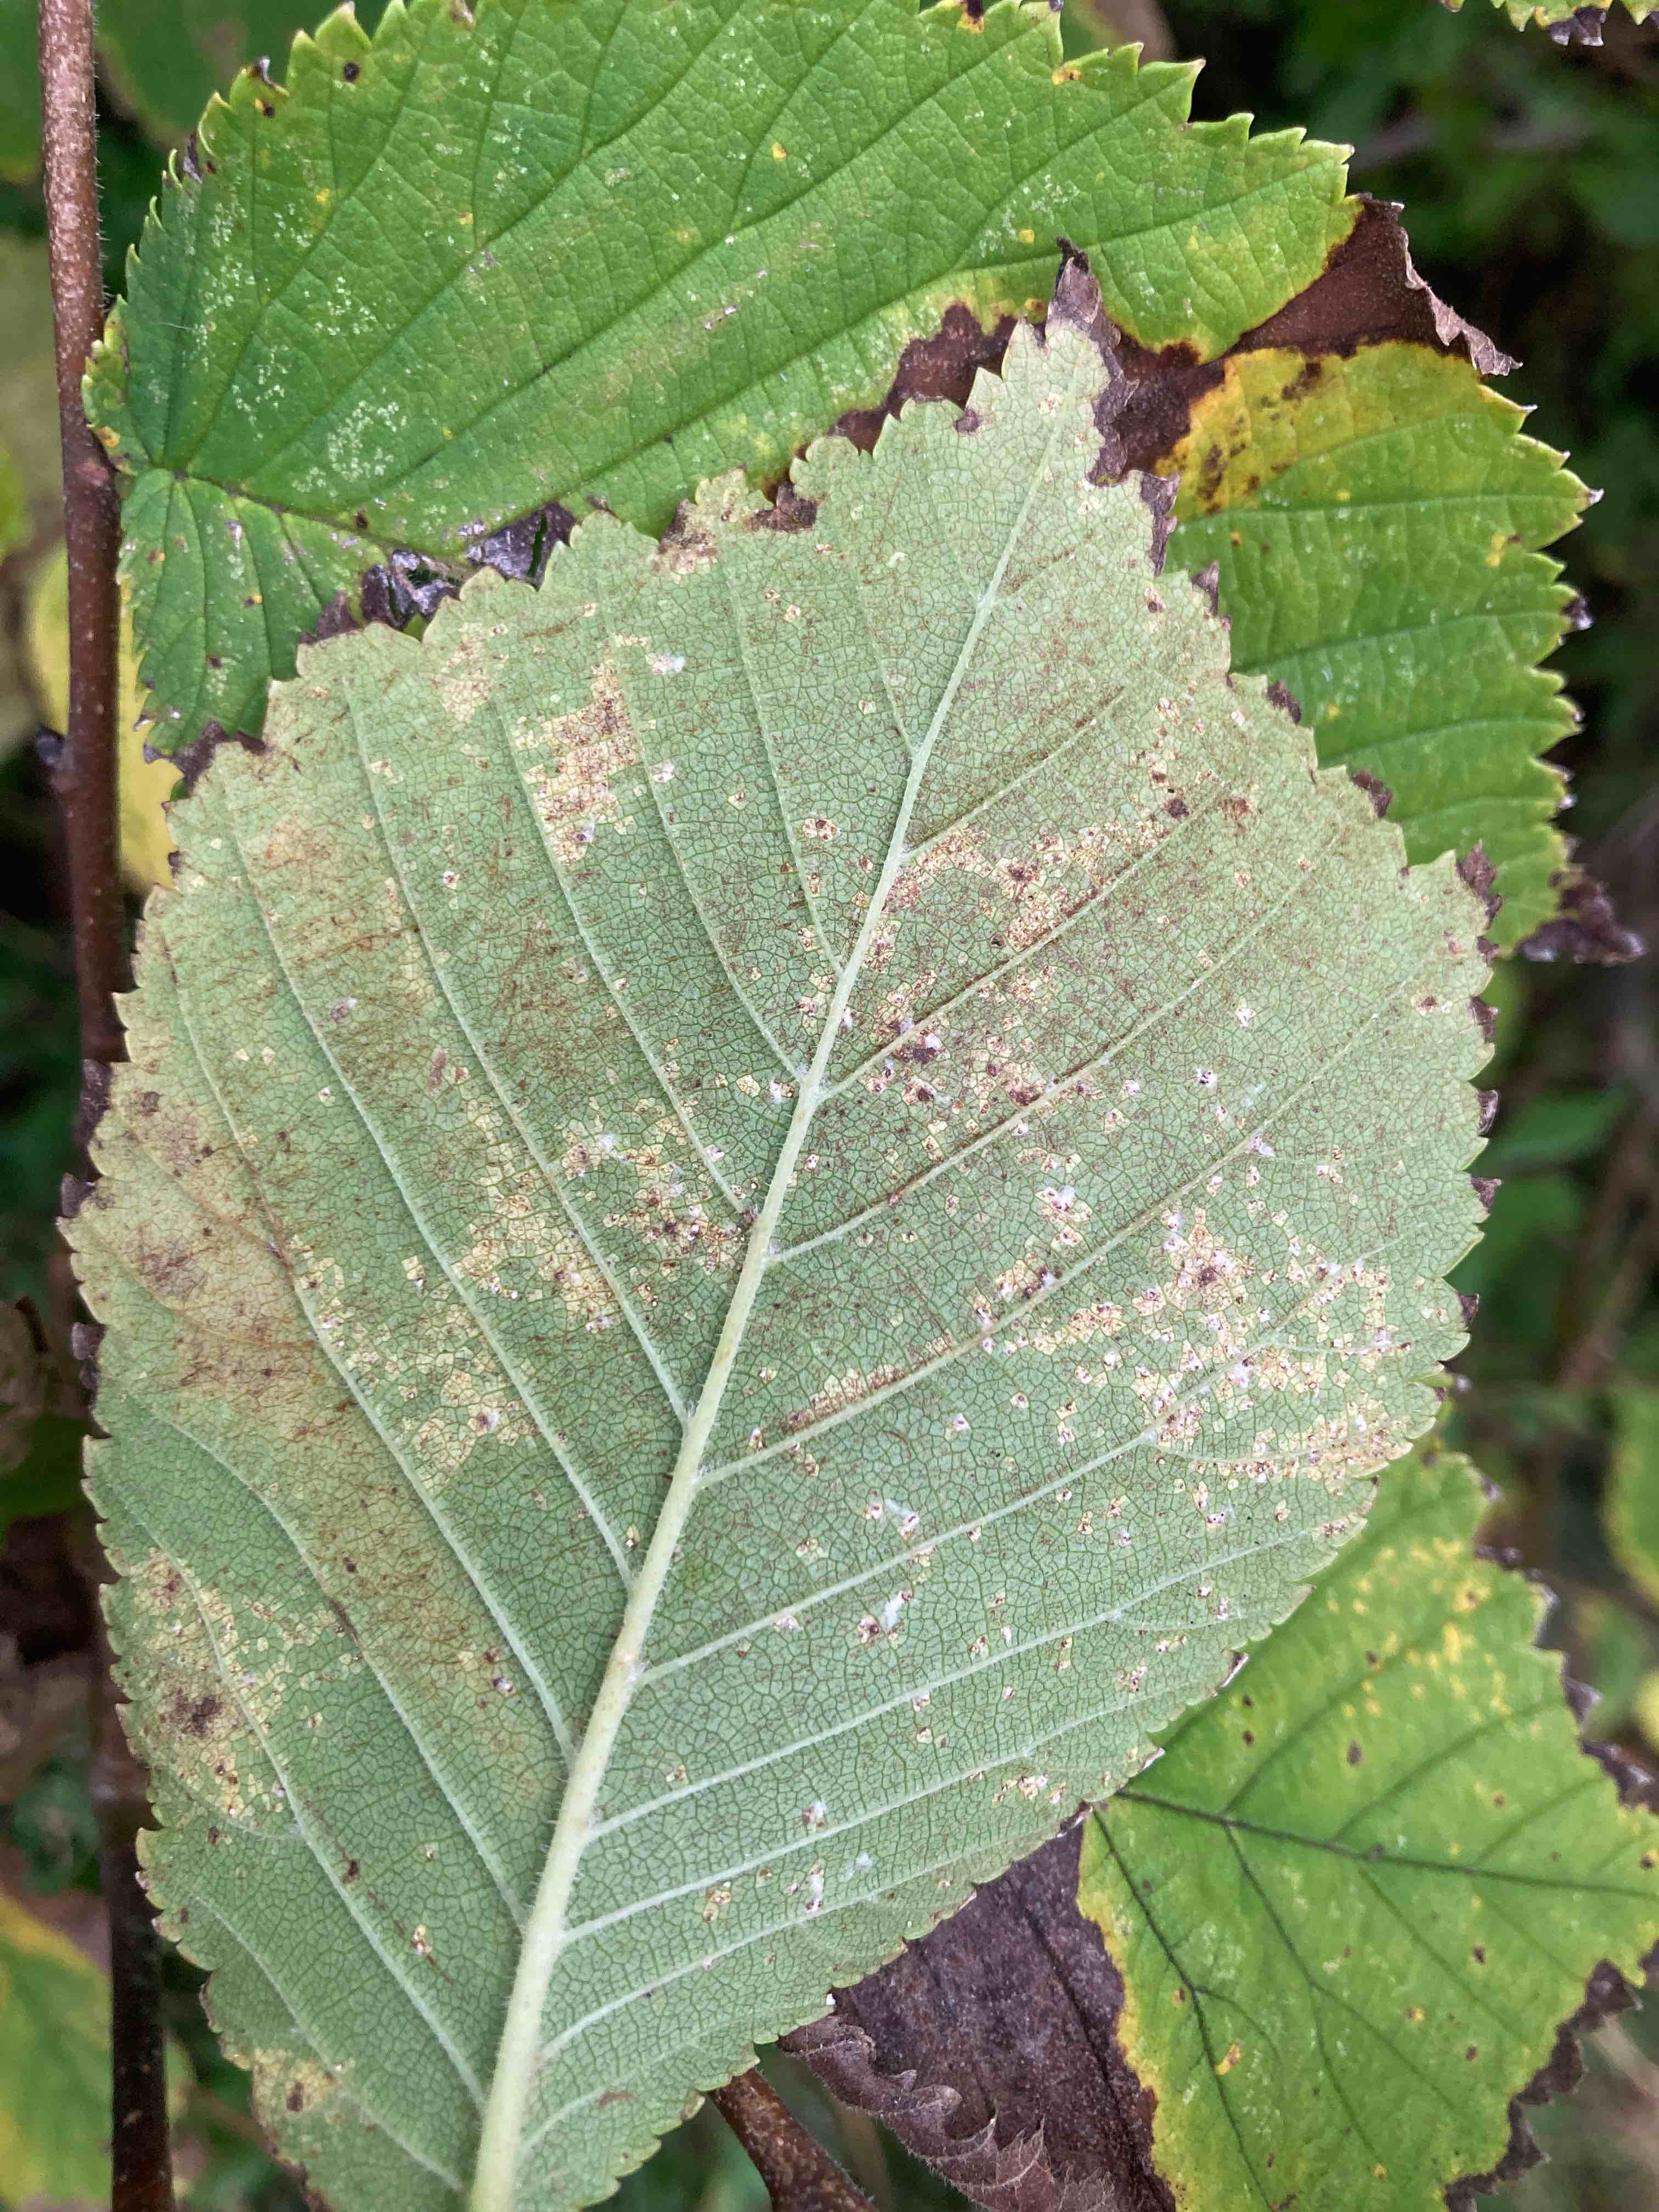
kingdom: Fungi
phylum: Ascomycota
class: Dothideomycetes
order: Mycosphaerellales
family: Mycosphaerellaceae
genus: Mycosphaerella
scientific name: Mycosphaerella ulmi
